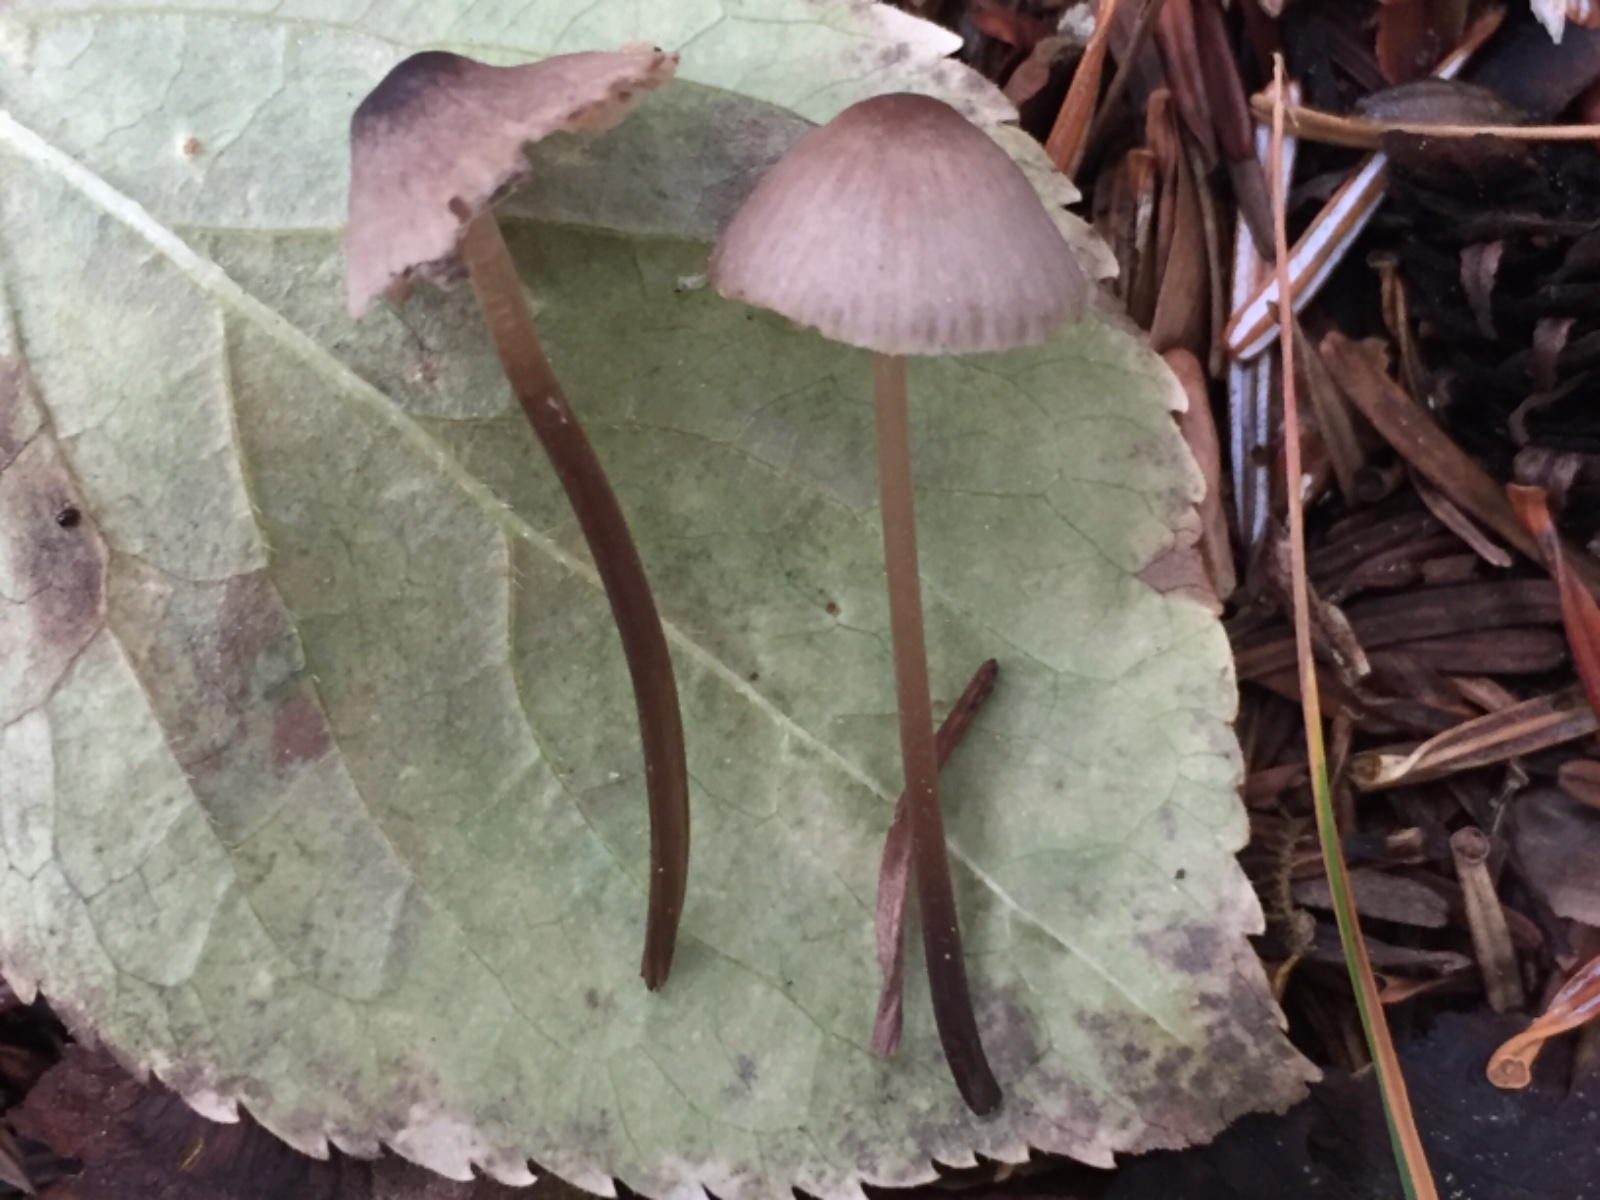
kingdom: Fungi
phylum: Basidiomycota
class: Agaricomycetes
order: Agaricales
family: Mycenaceae
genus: Mycena
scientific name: Mycena
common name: huesvamp
